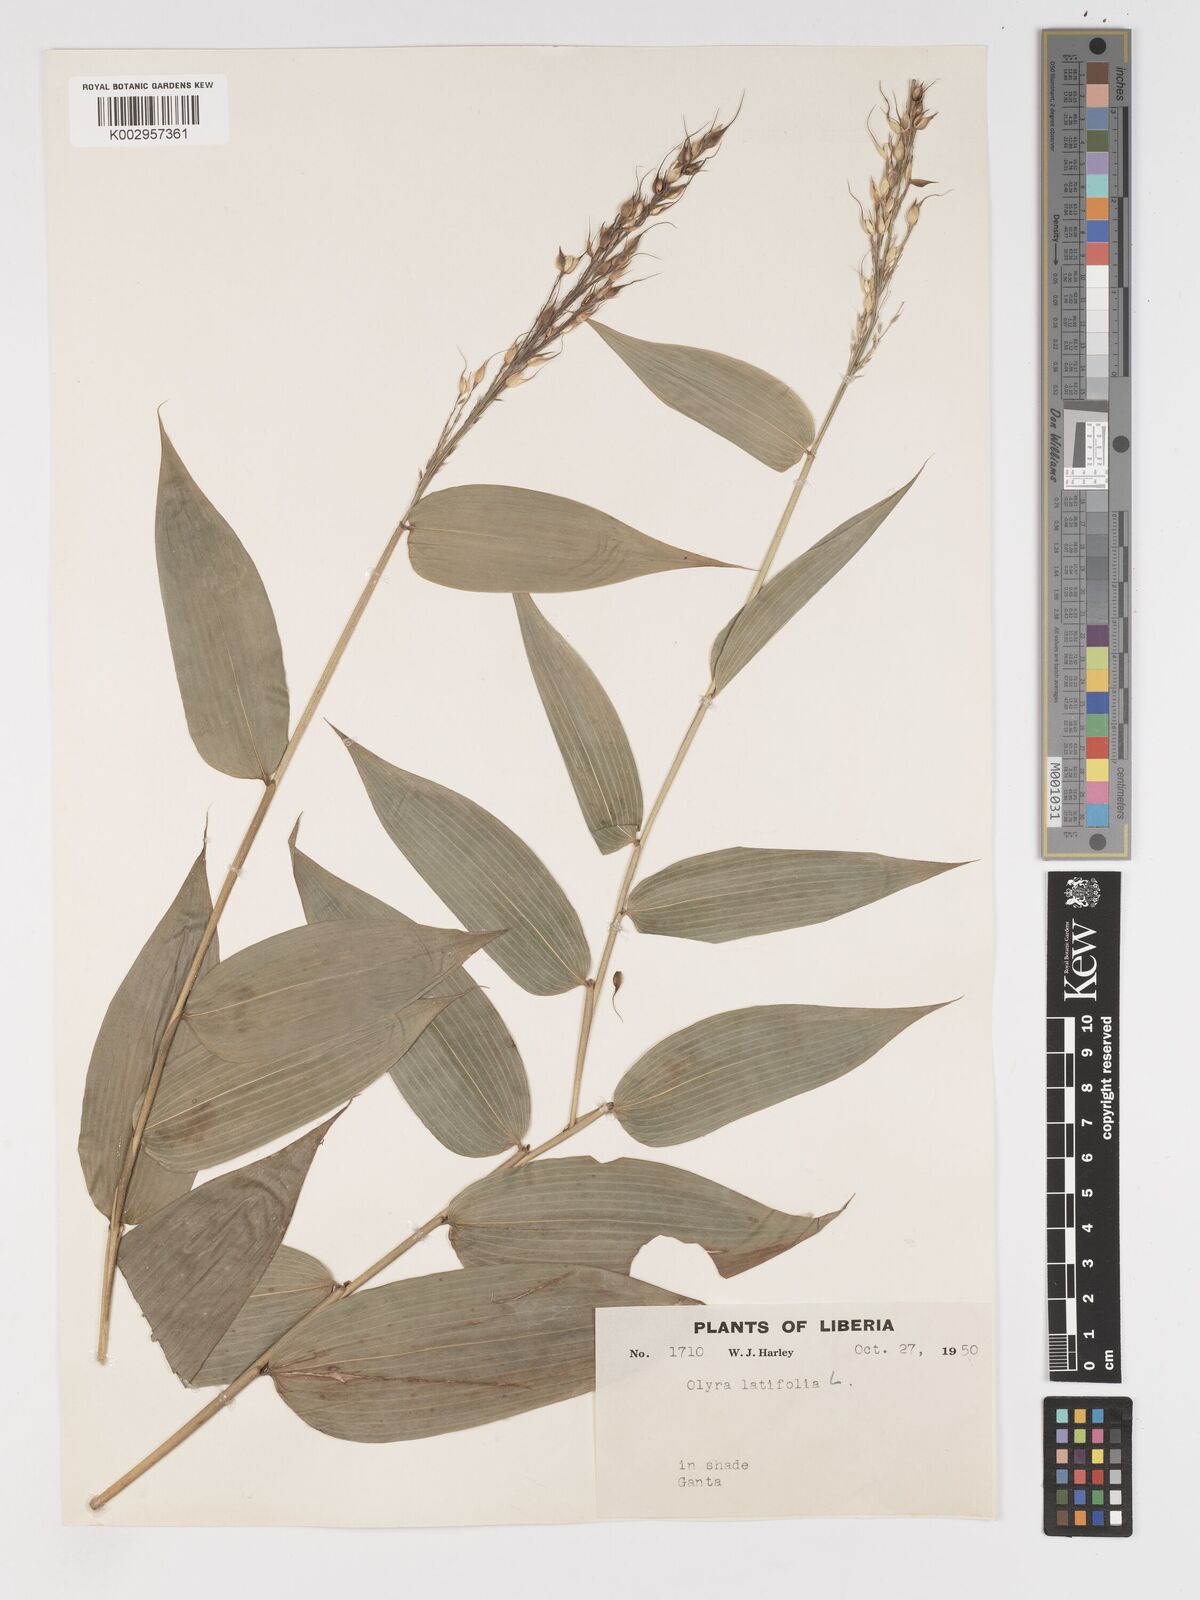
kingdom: Plantae
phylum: Tracheophyta
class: Liliopsida
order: Poales
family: Poaceae
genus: Olyra
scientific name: Olyra latifolia
